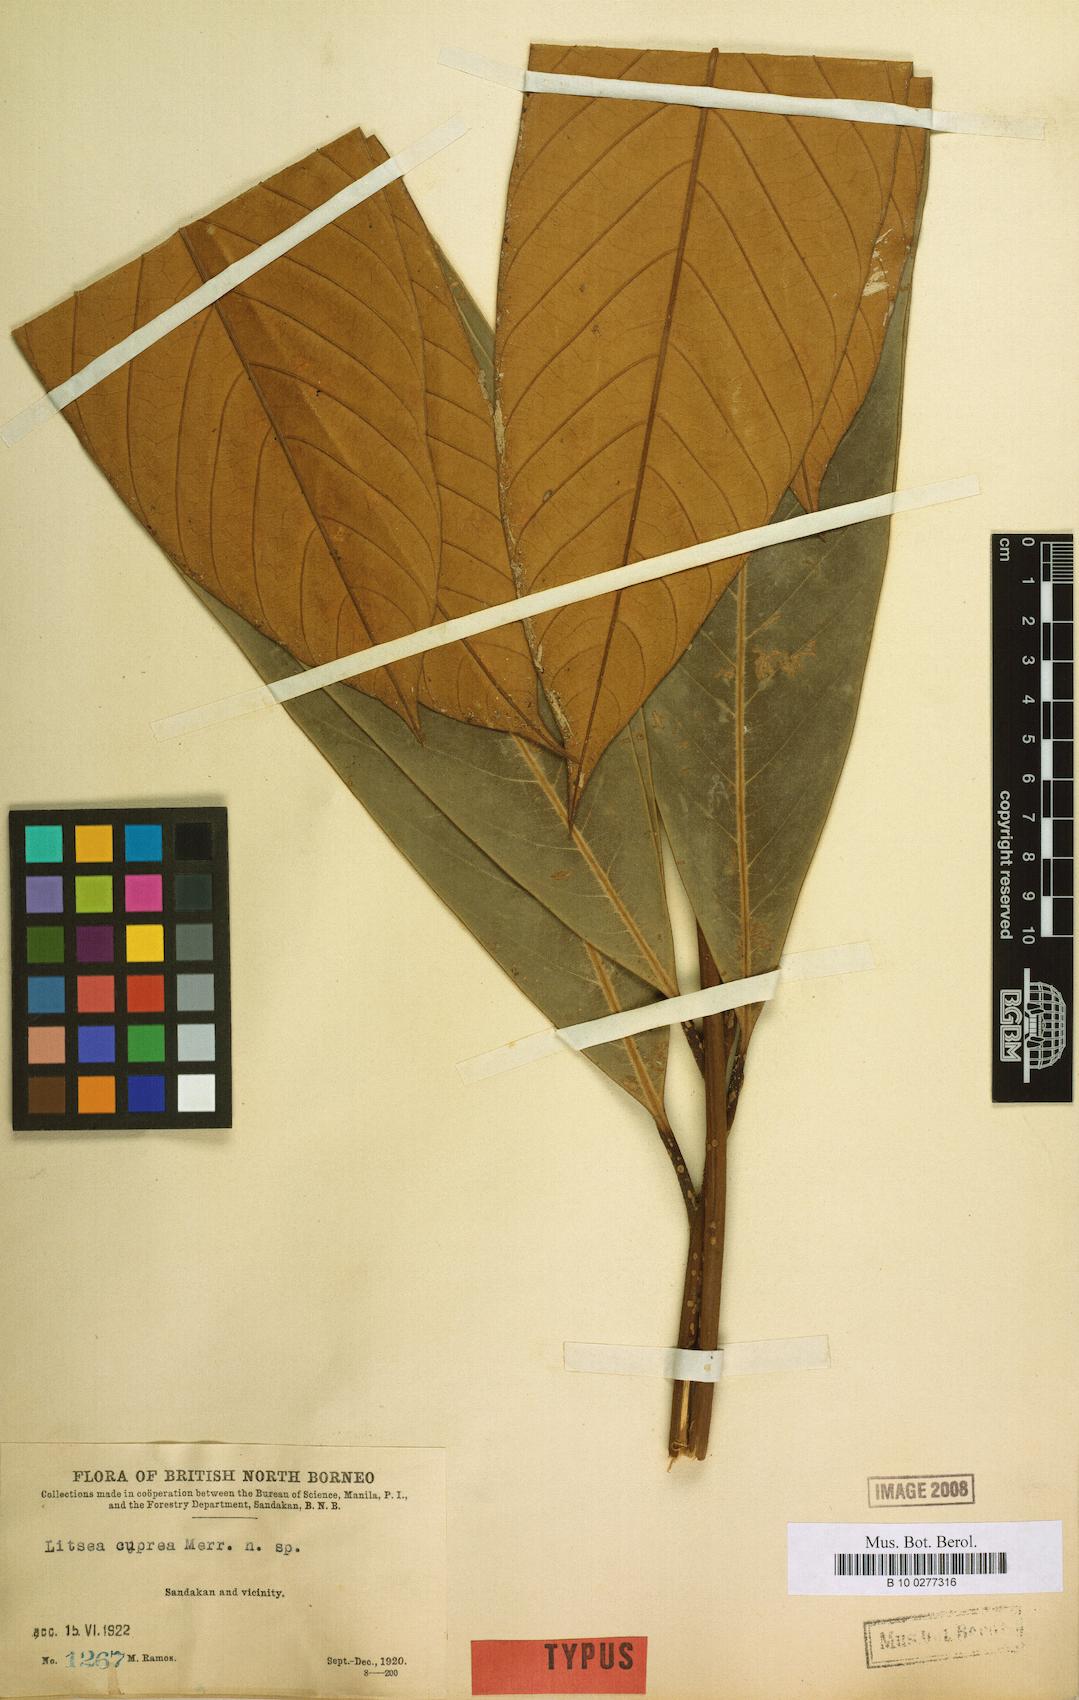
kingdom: Plantae
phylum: Tracheophyta
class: Magnoliopsida
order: Laurales
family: Lauraceae
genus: Litsea
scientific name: Litsea cuprea
